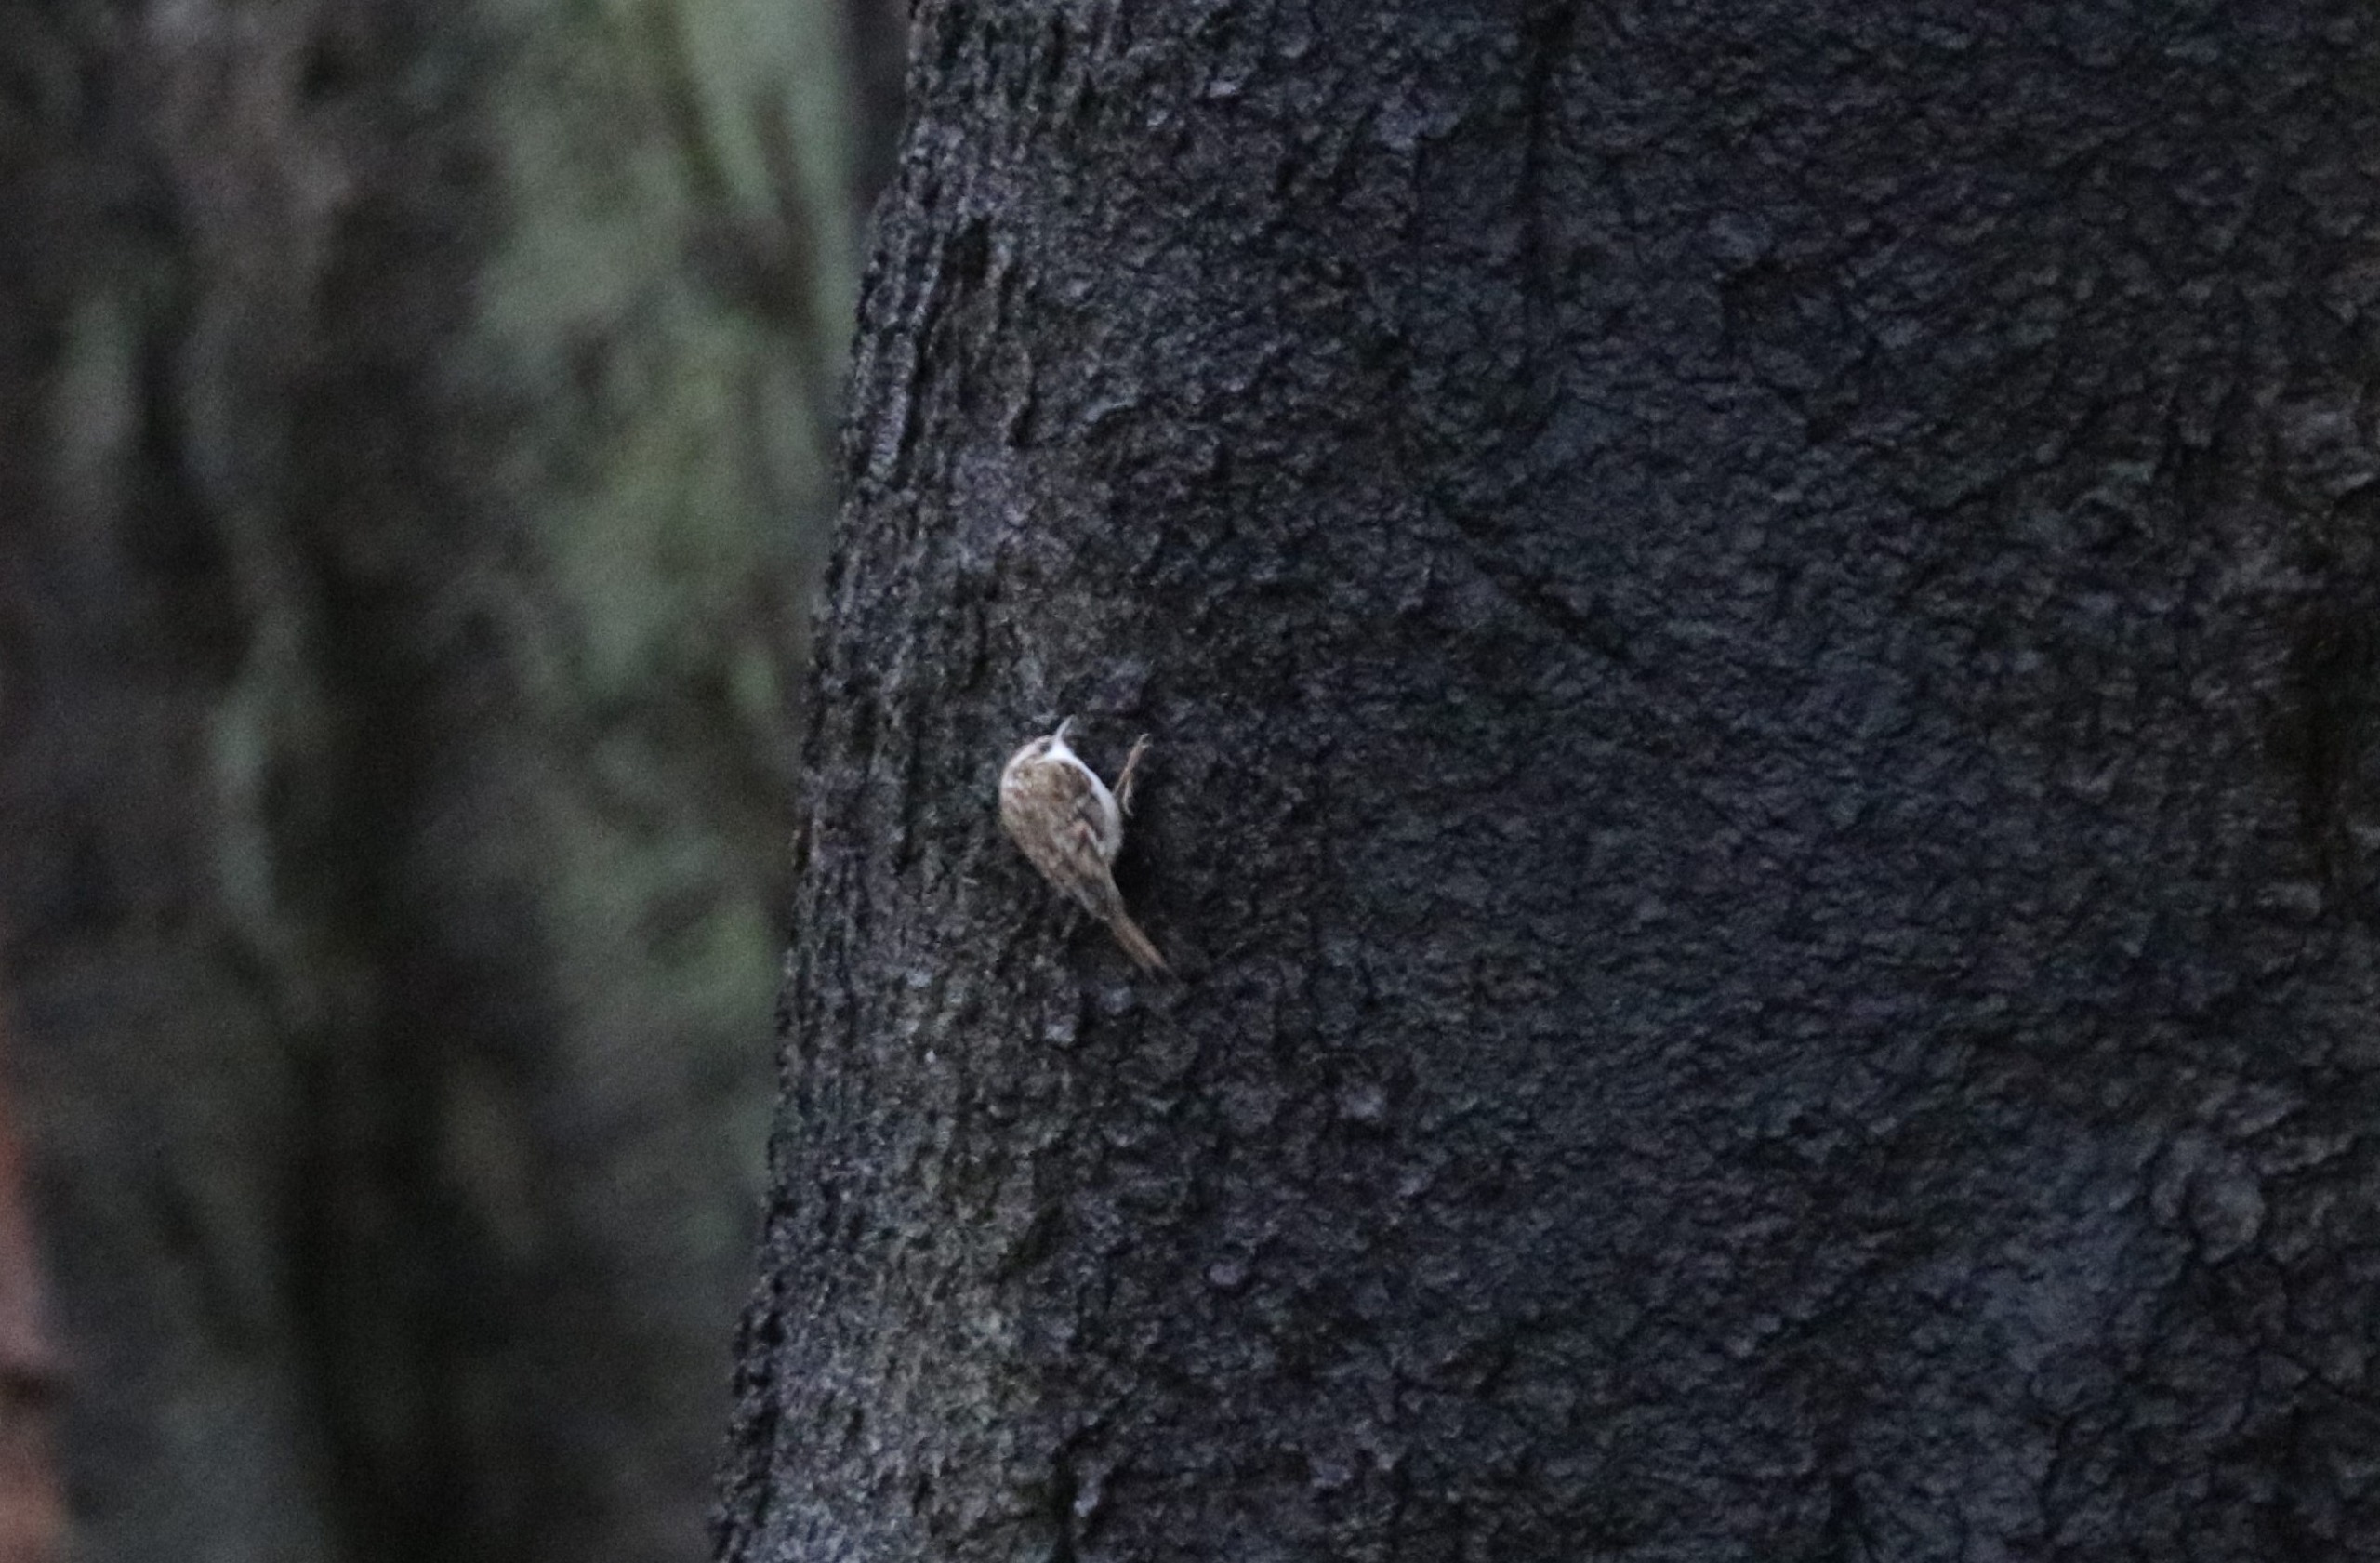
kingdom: Animalia
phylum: Chordata
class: Aves
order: Passeriformes
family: Certhiidae
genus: Certhia
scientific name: Certhia familiaris
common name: Træløber
